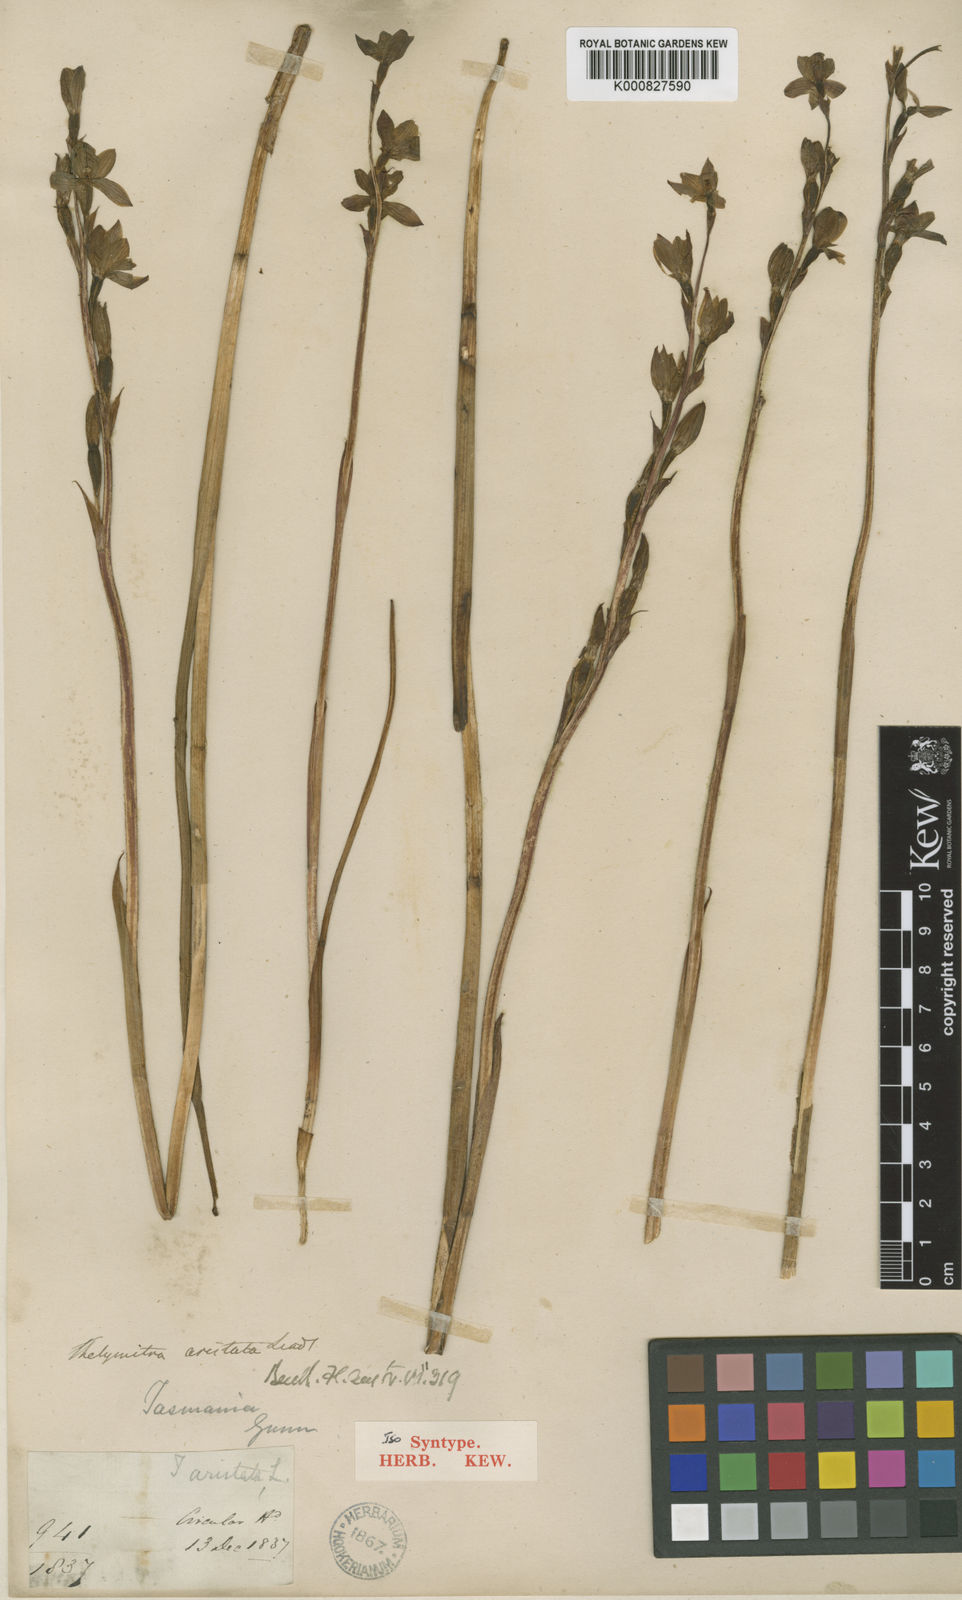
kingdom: Plantae
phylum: Tracheophyta
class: Liliopsida
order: Asparagales
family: Orchidaceae
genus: Thelymitra
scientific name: Thelymitra aristata
